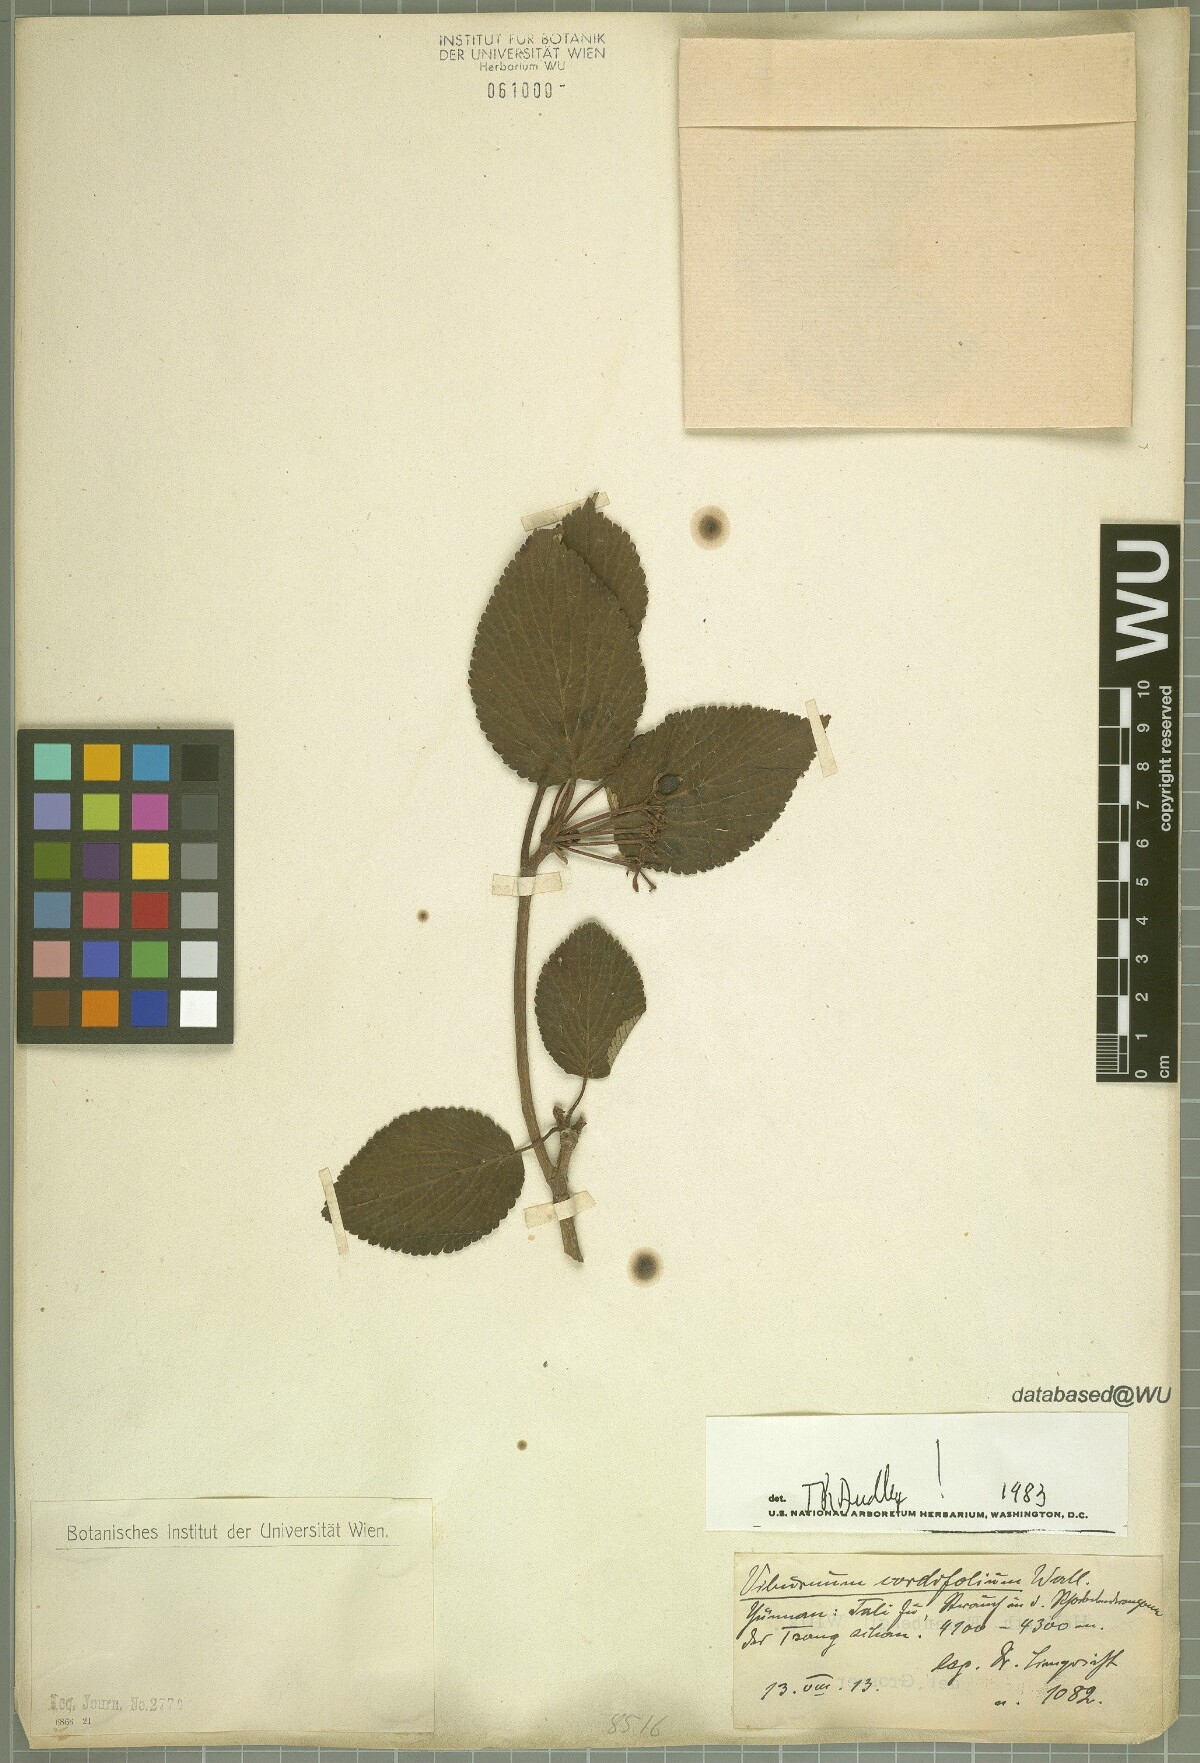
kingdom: Plantae
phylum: Tracheophyta
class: Magnoliopsida
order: Dipsacales
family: Viburnaceae
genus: Viburnum
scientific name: Viburnum nervosum
